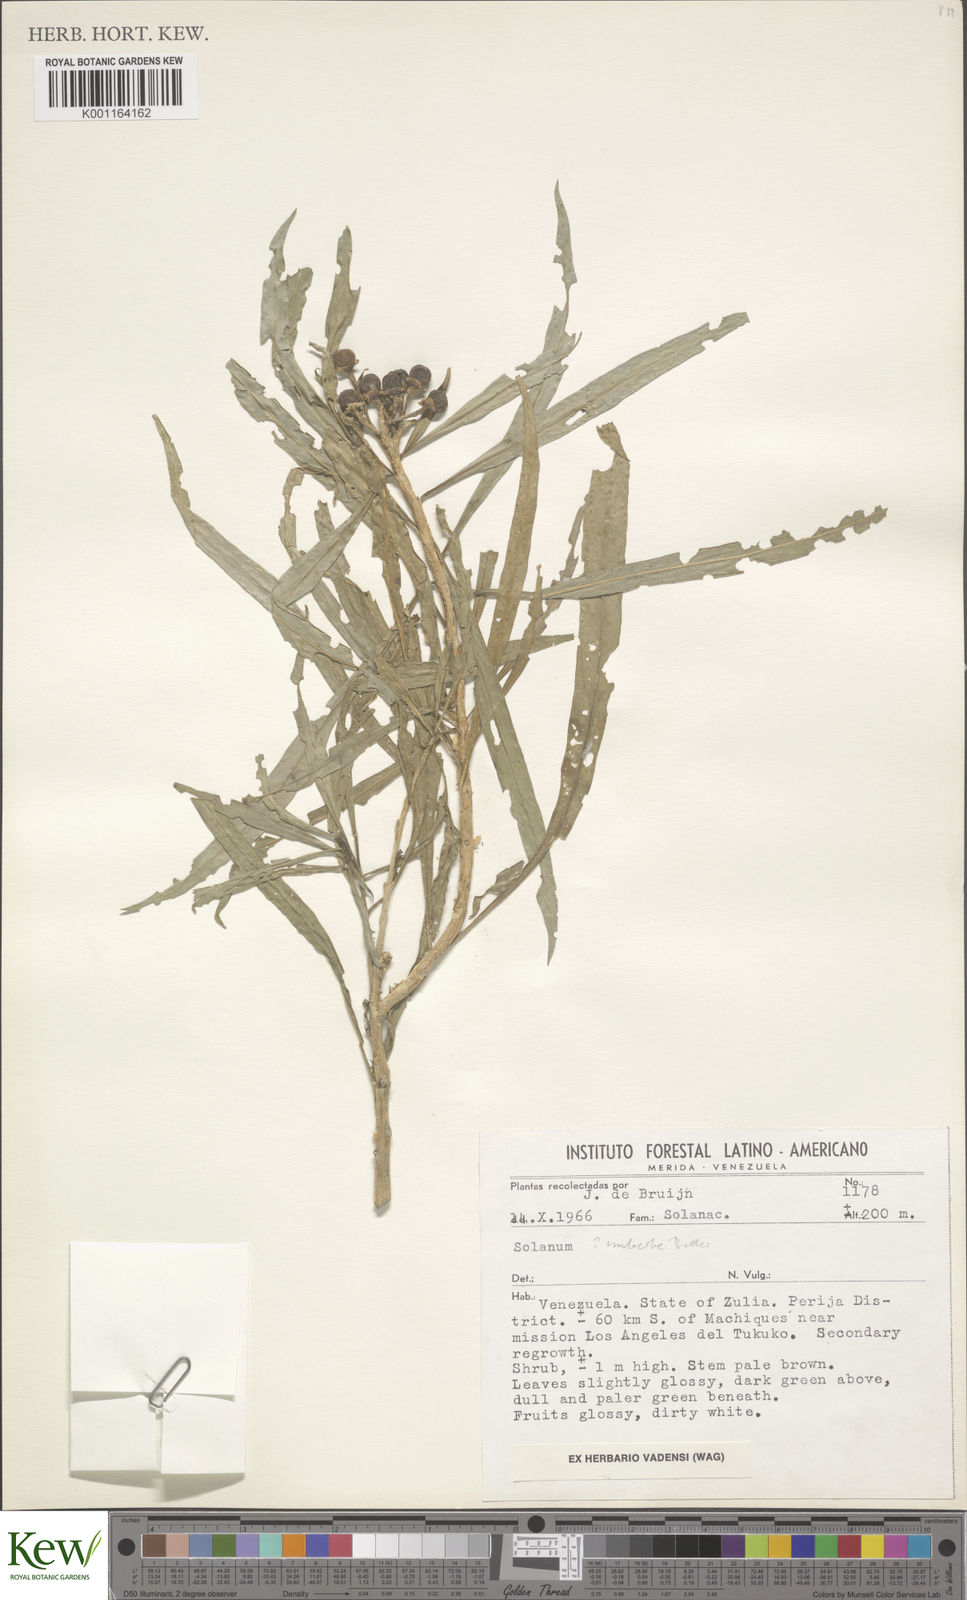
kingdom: Plantae
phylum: Tracheophyta
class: Magnoliopsida
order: Solanales
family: Solanaceae
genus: Solanum
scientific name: Solanum imberbe
